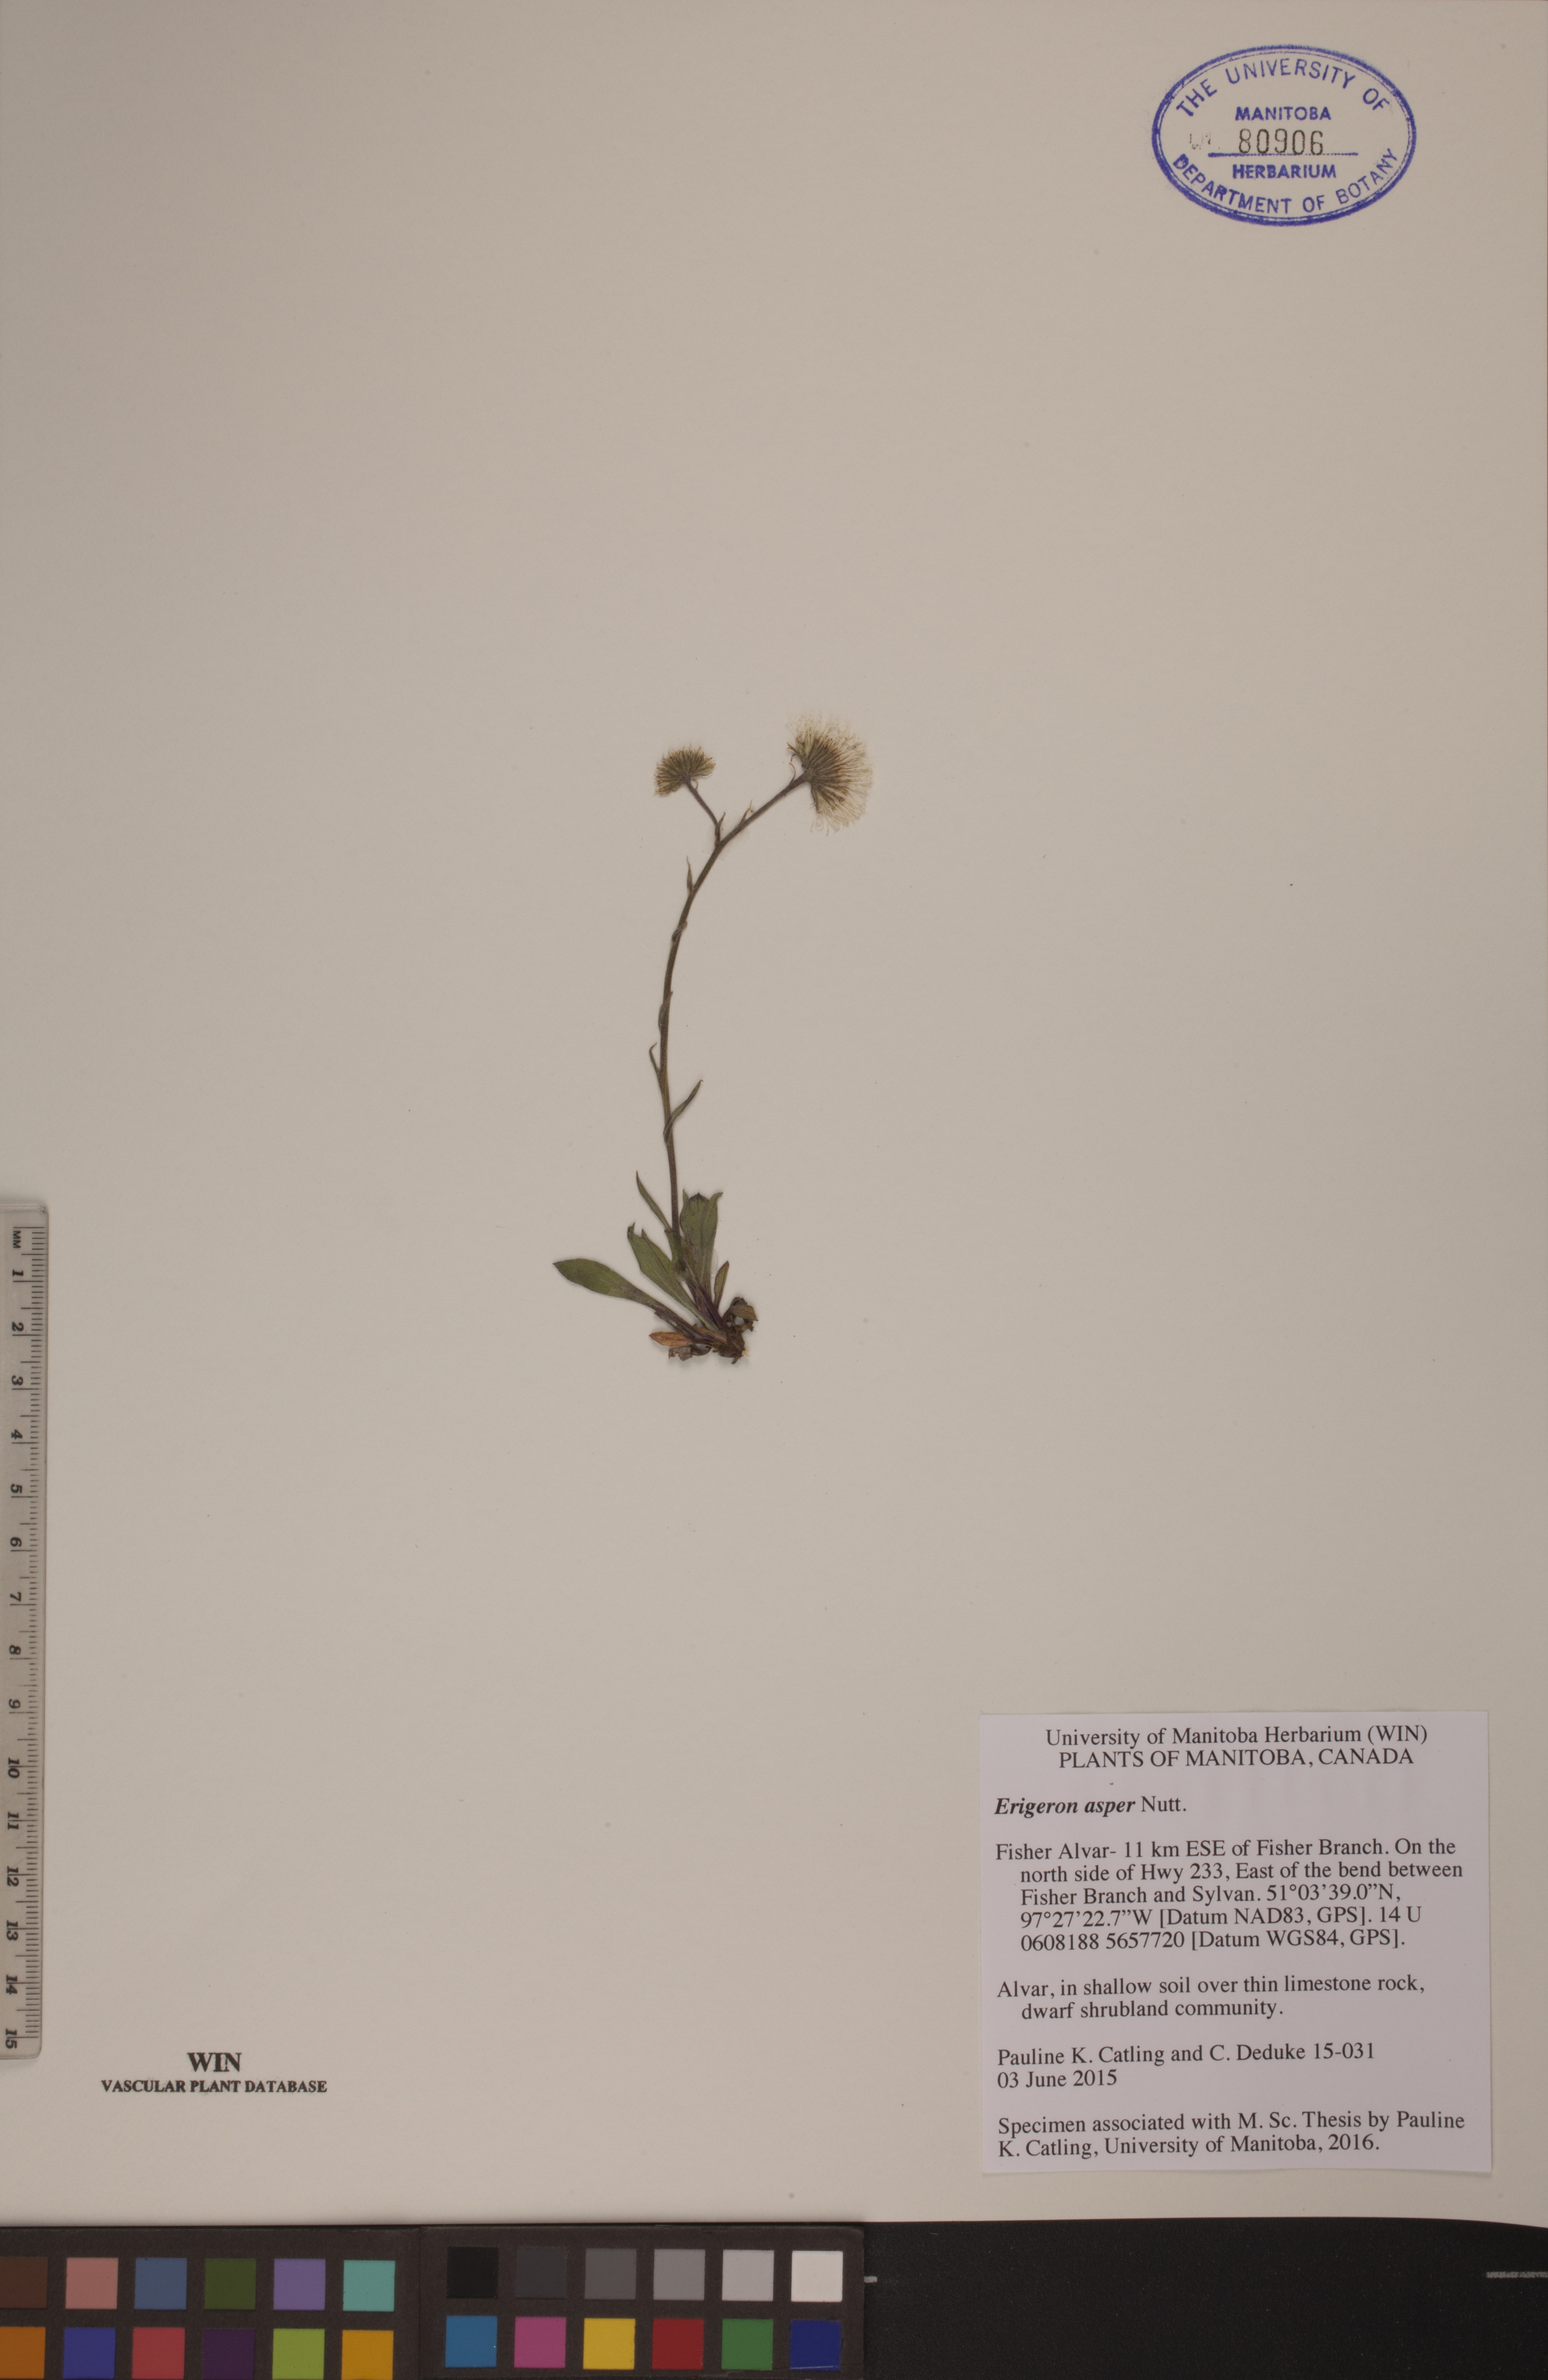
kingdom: Plantae
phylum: Tracheophyta
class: Magnoliopsida
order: Asterales
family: Asteraceae
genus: Erigeron
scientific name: Erigeron glabellus
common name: Smooth fleabane
